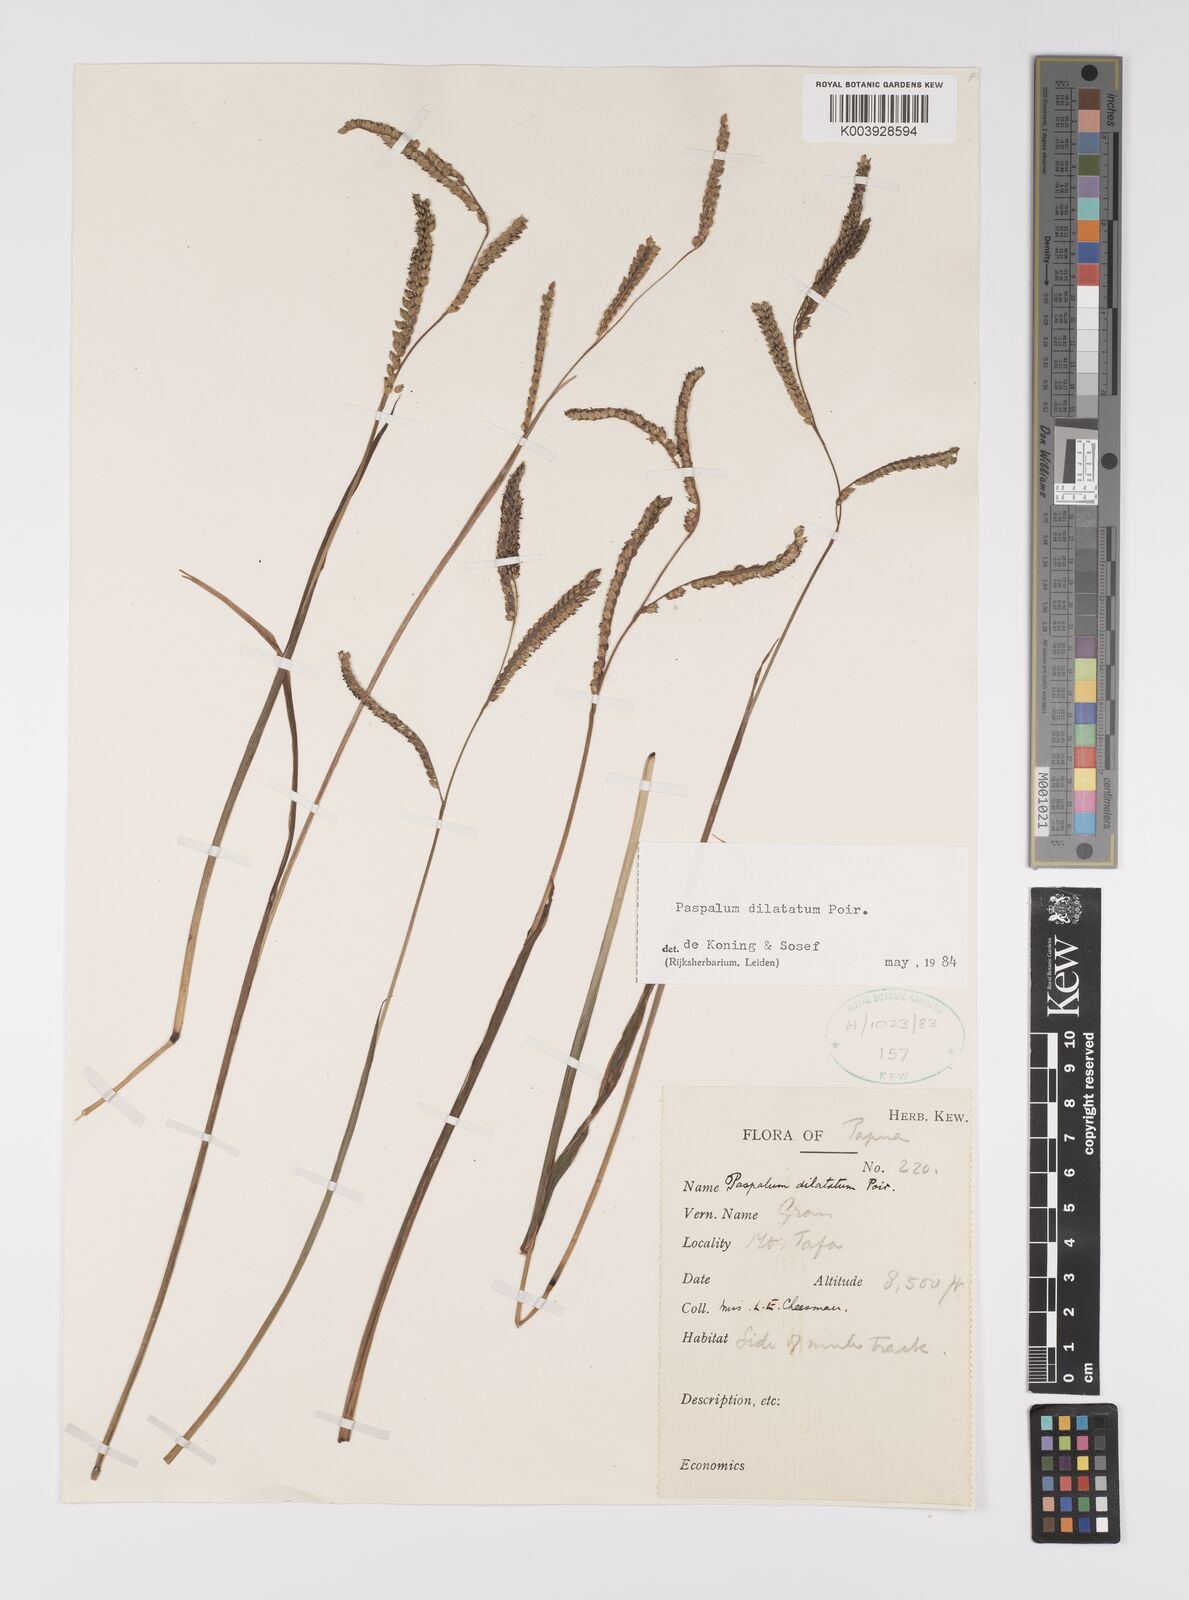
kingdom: Plantae
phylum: Tracheophyta
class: Liliopsida
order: Poales
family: Poaceae
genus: Paspalum
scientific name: Paspalum dilatatum
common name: Dallisgrass
